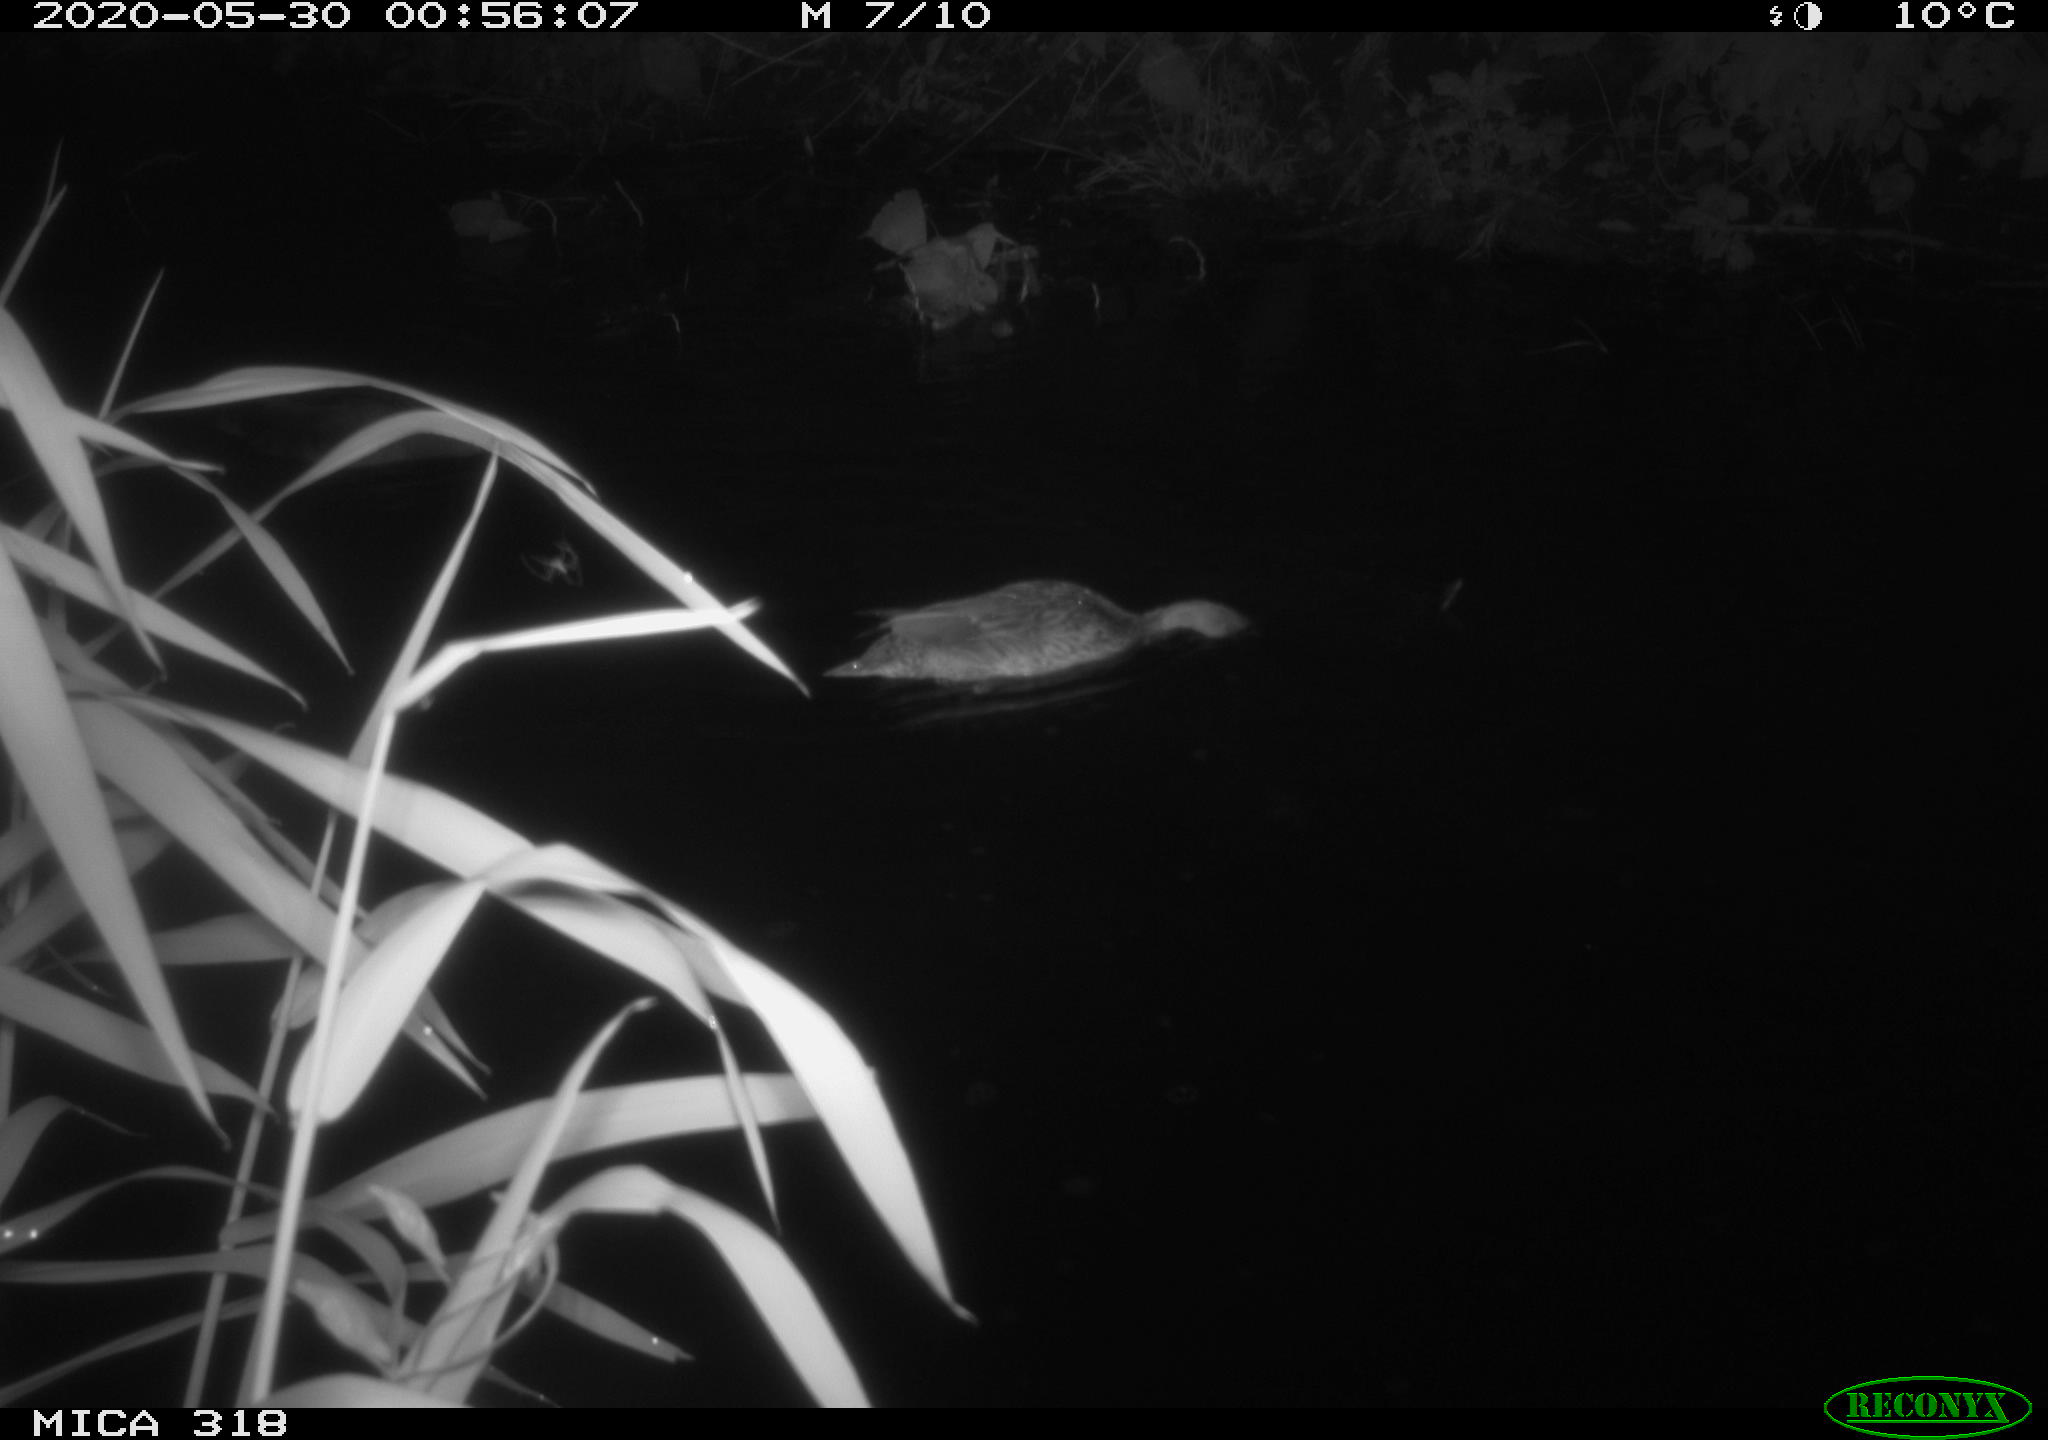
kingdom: Animalia
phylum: Chordata
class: Aves
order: Anseriformes
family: Anatidae
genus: Anas
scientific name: Anas platyrhynchos
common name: Mallard
